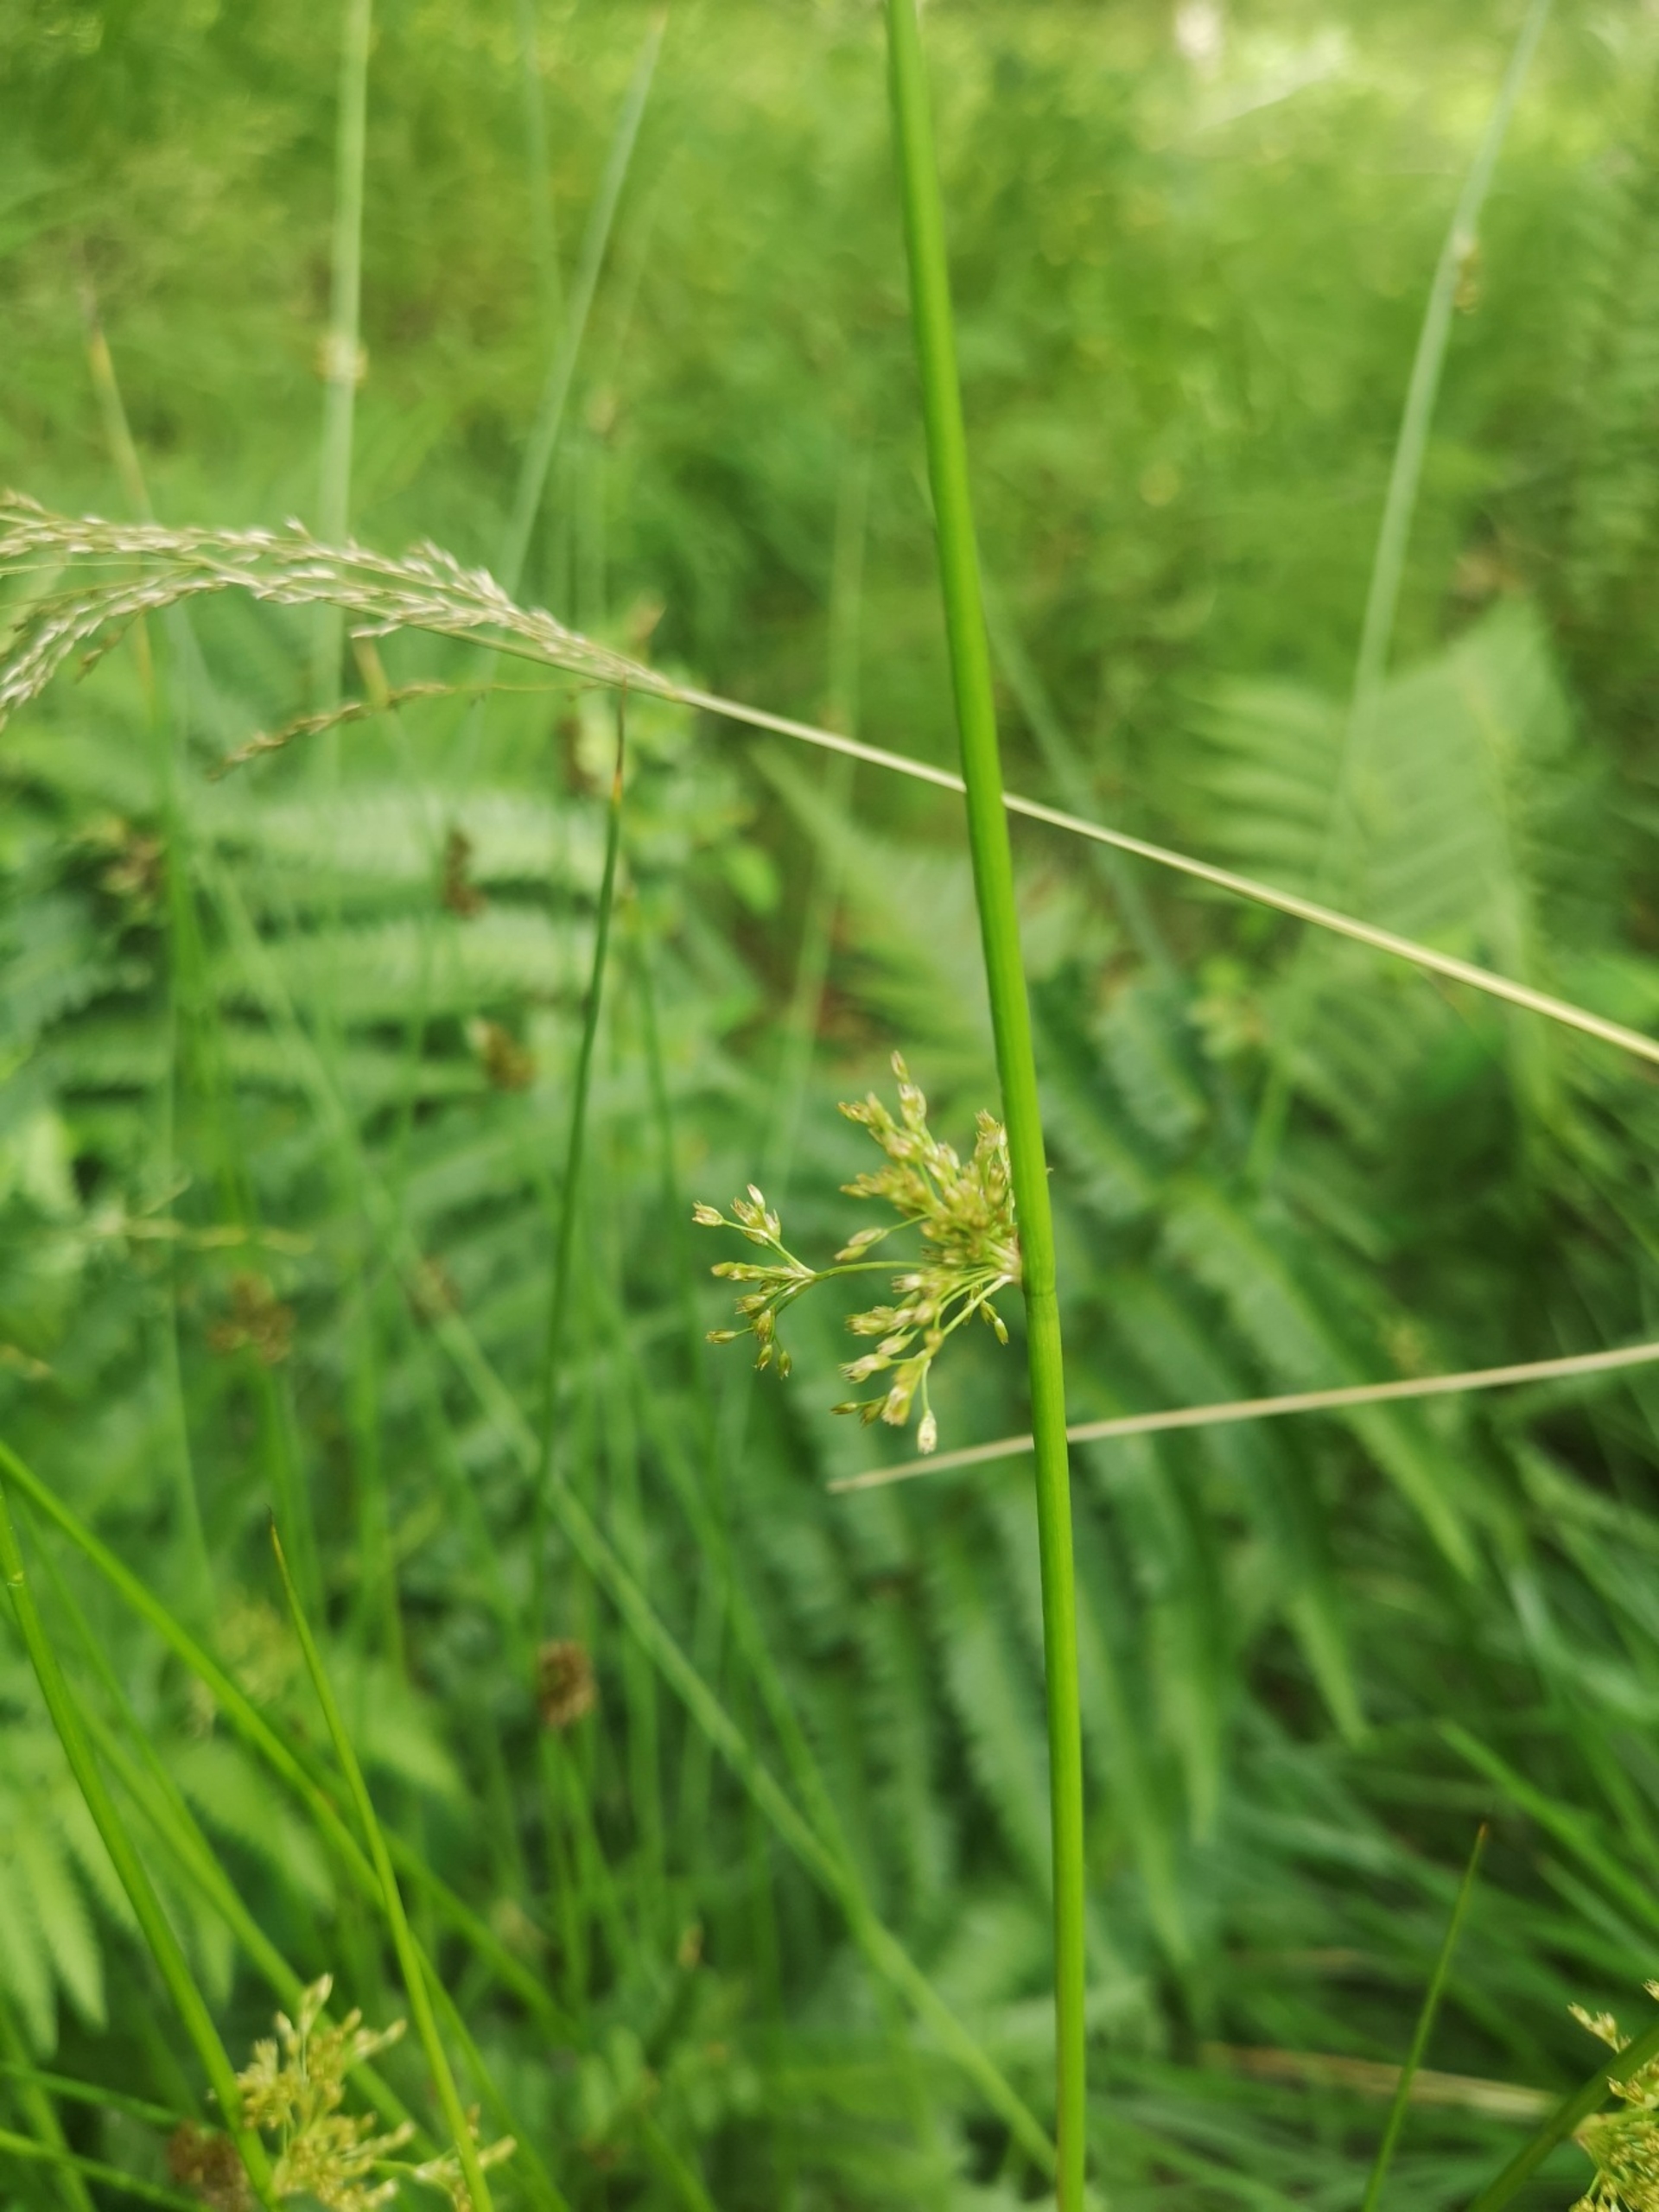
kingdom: Plantae
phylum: Tracheophyta
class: Liliopsida
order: Poales
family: Juncaceae
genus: Juncus
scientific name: Juncus effusus
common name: Lyse-siv
